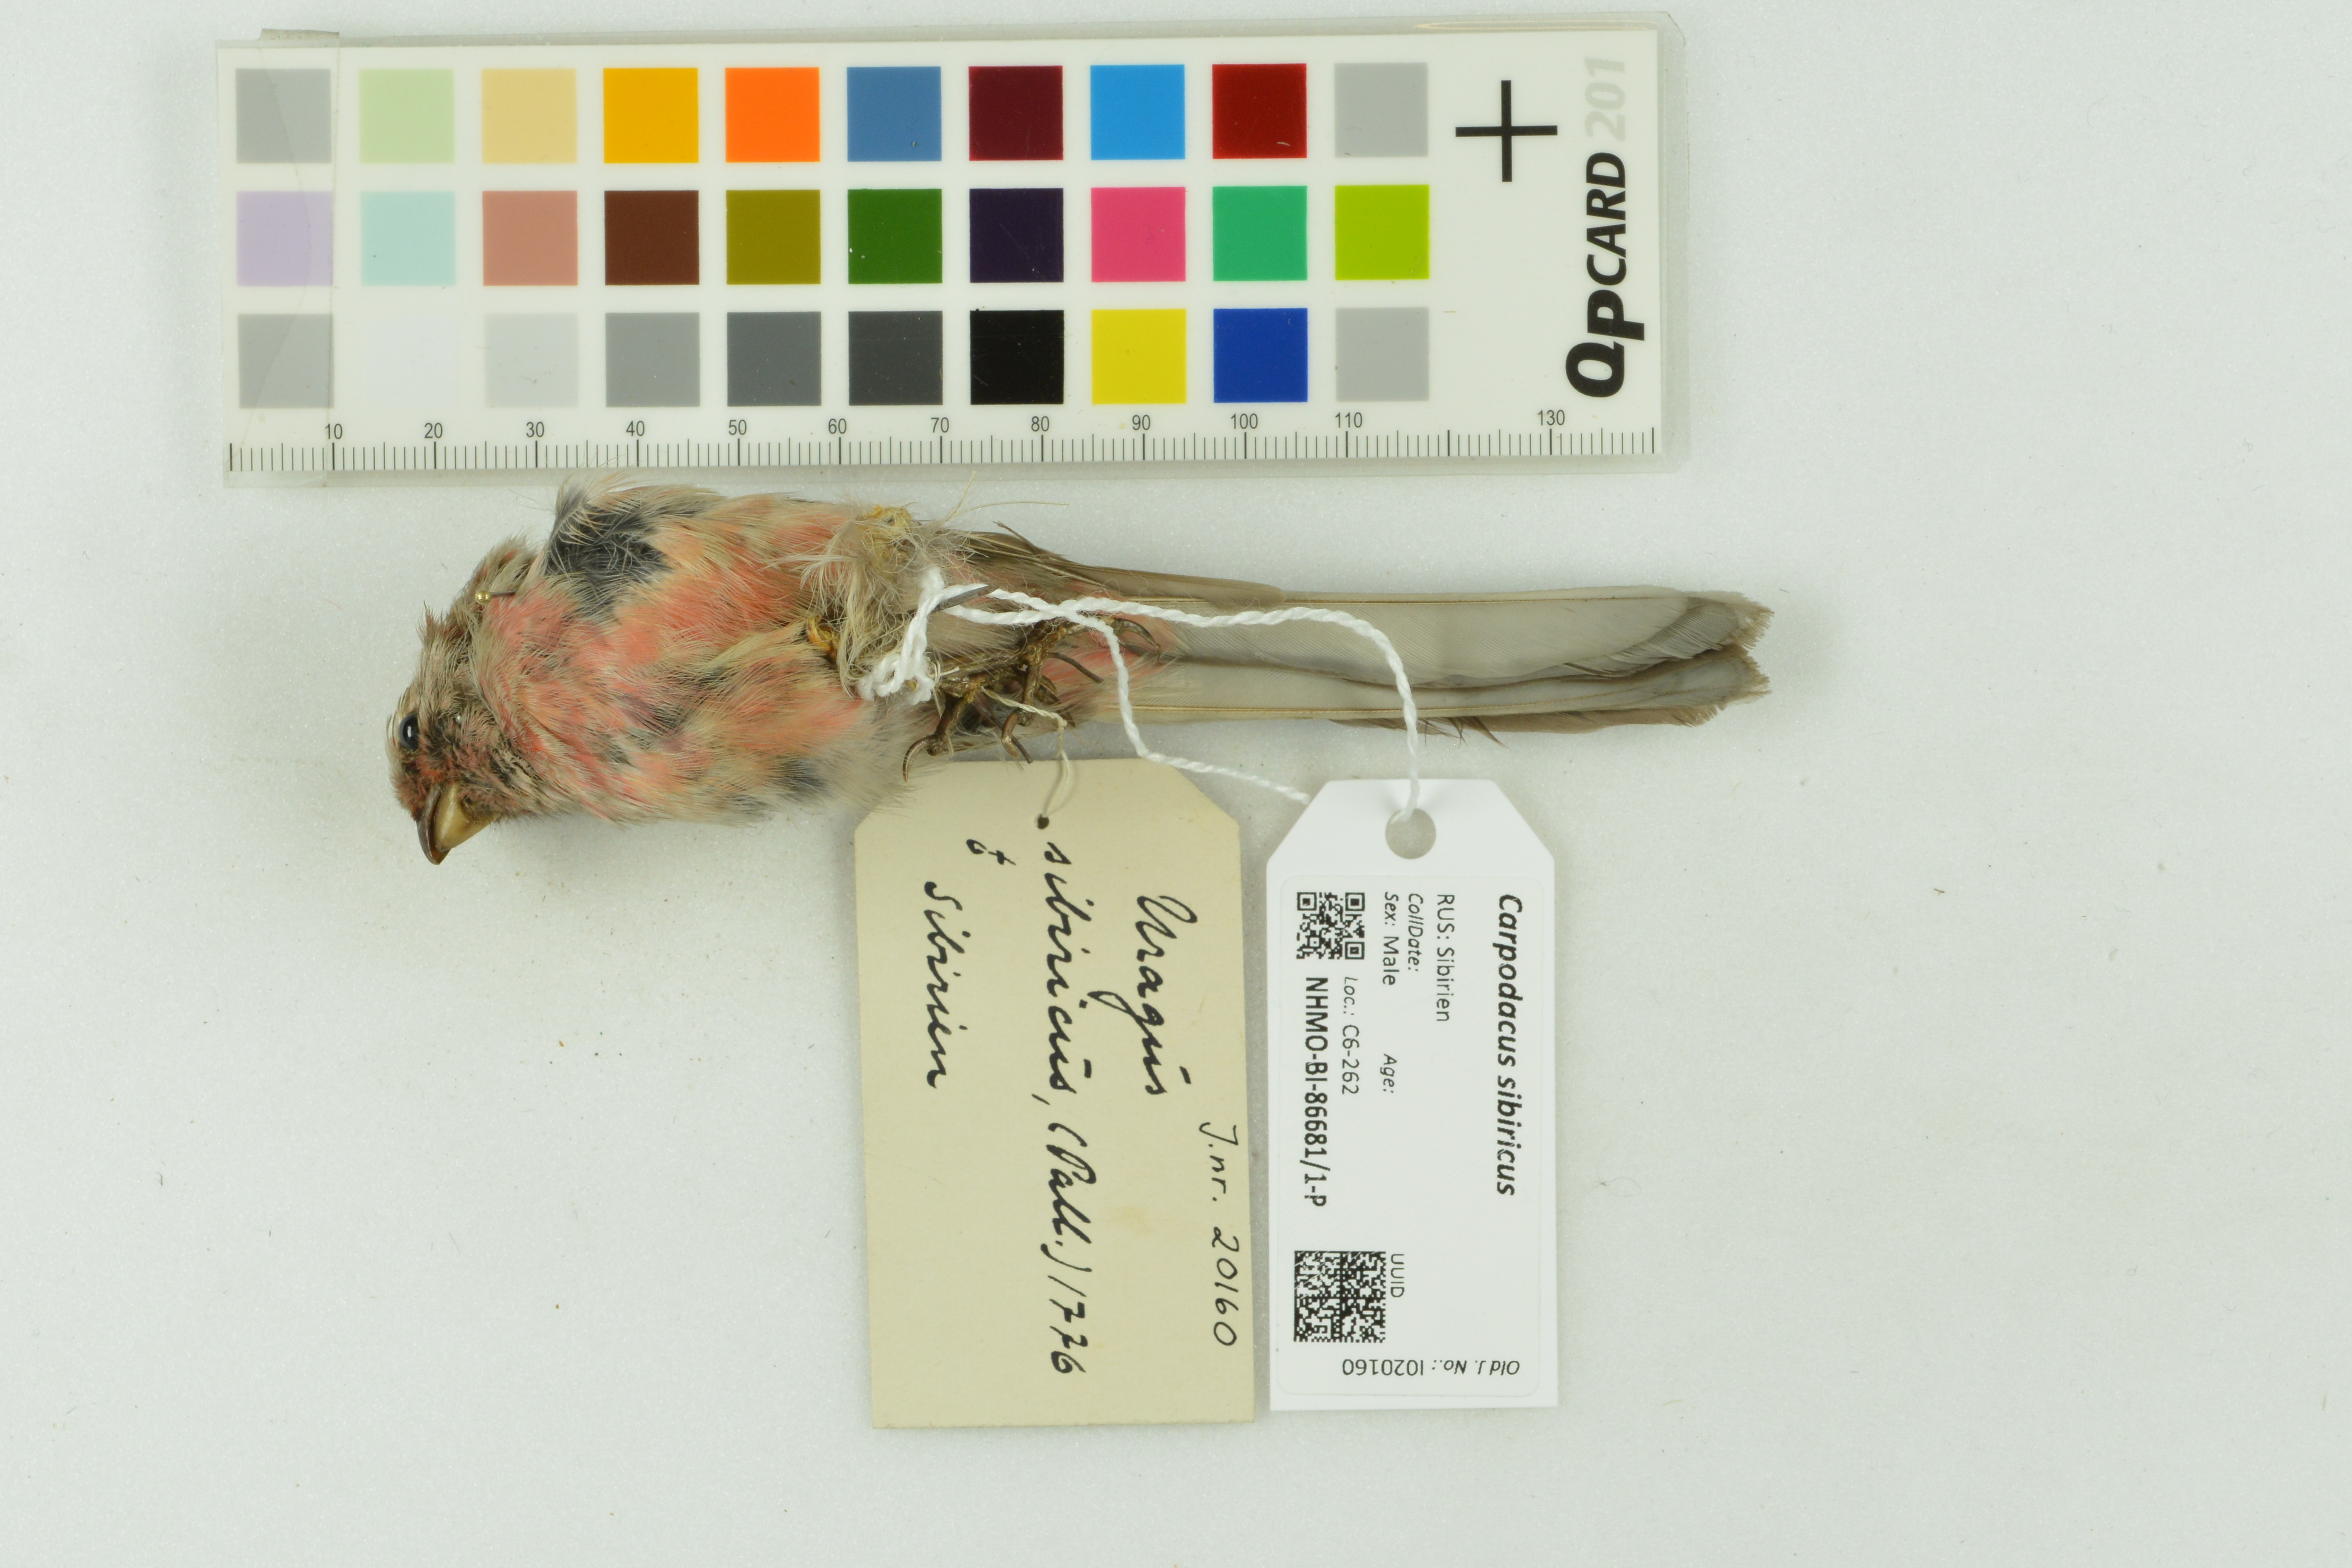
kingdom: Animalia
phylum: Chordata
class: Aves
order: Passeriformes
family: Fringillidae
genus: Carpodacus
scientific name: Carpodacus sibiricus
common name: Long-tailed rosefinch
